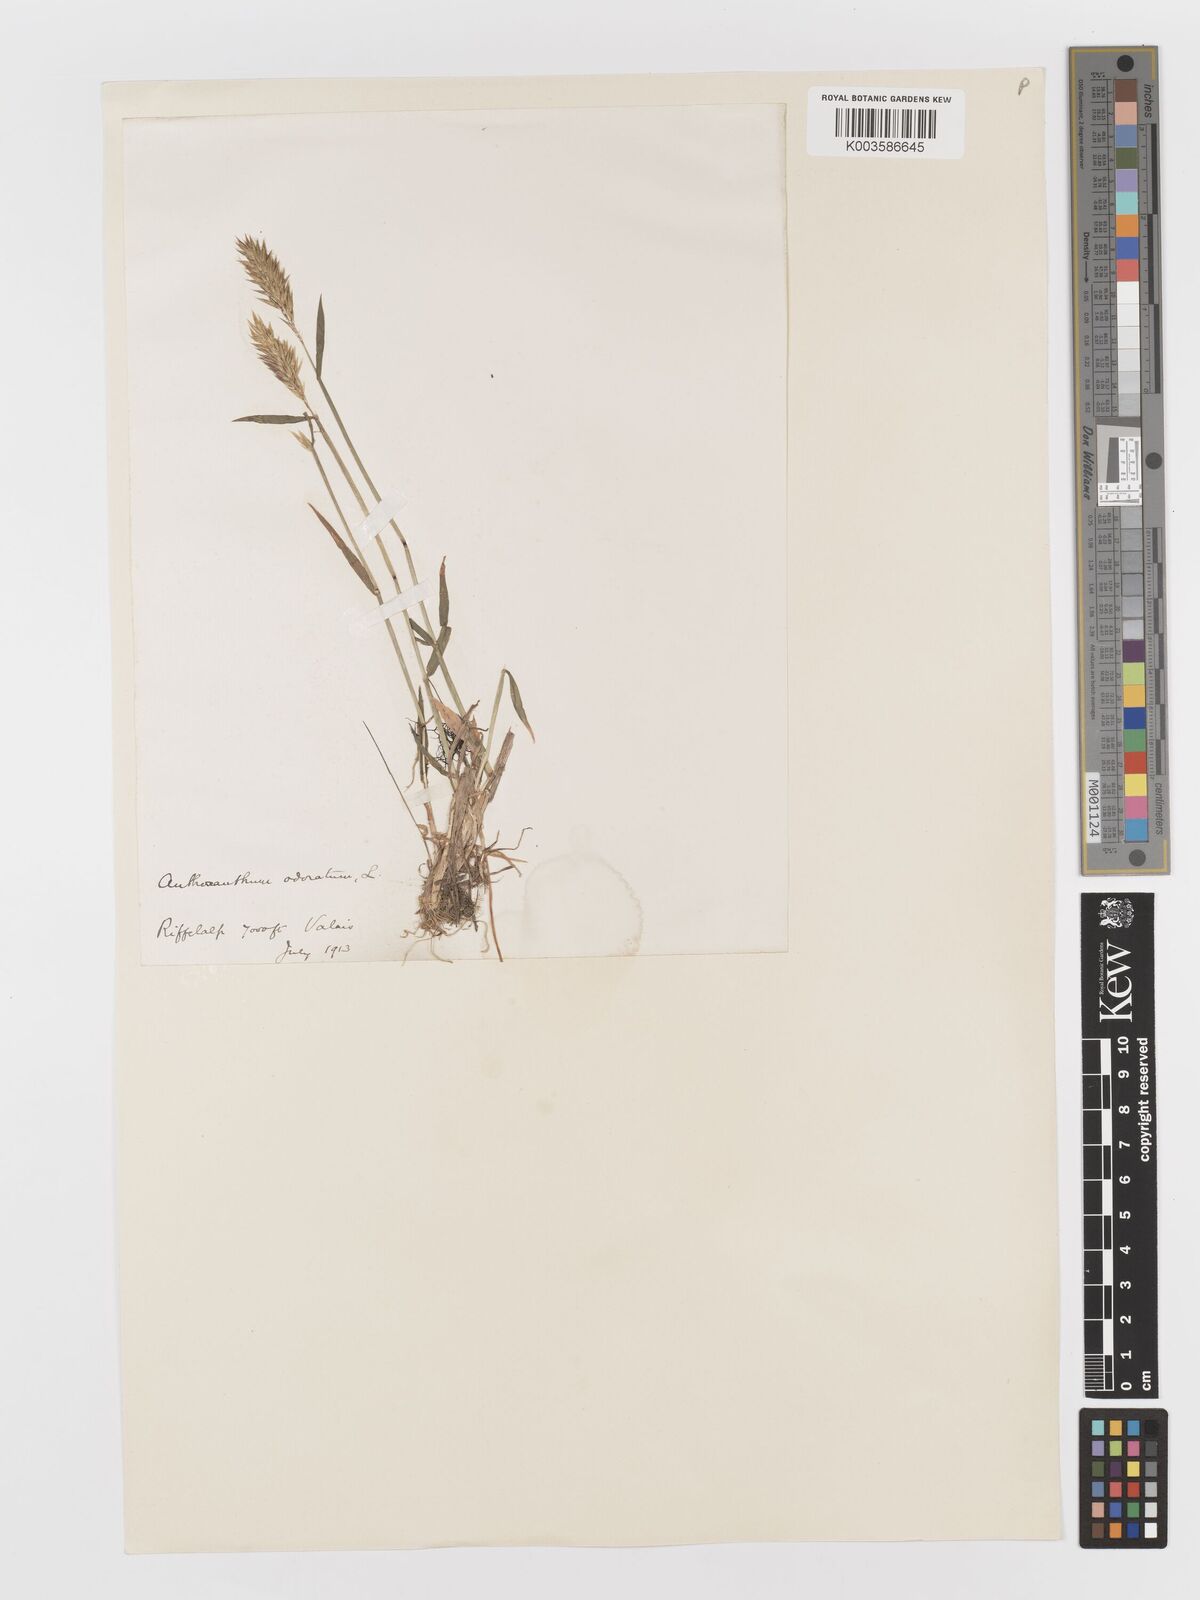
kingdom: Plantae
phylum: Tracheophyta
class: Liliopsida
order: Poales
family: Poaceae
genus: Anthoxanthum
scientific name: Anthoxanthum odoratum
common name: Sweet vernalgrass
